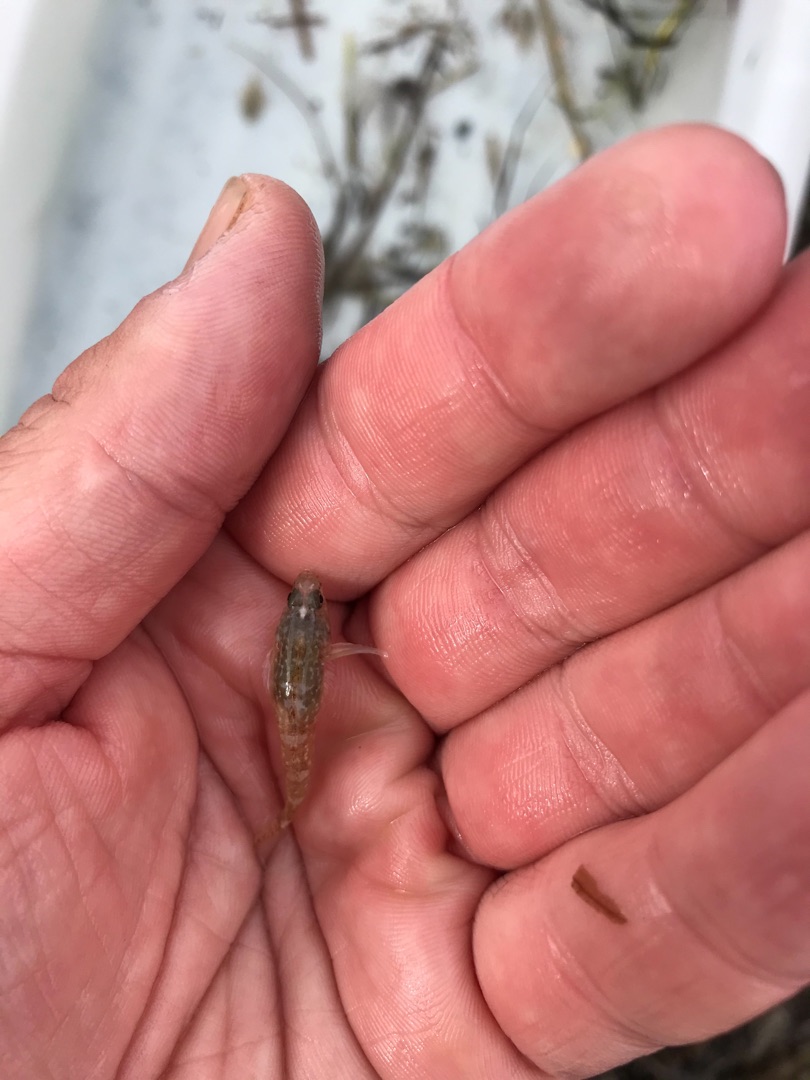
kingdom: Animalia
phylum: Chordata
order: Perciformes
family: Gobiidae
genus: Pomatoschistus
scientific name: Pomatoschistus microps
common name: Lerkutling
